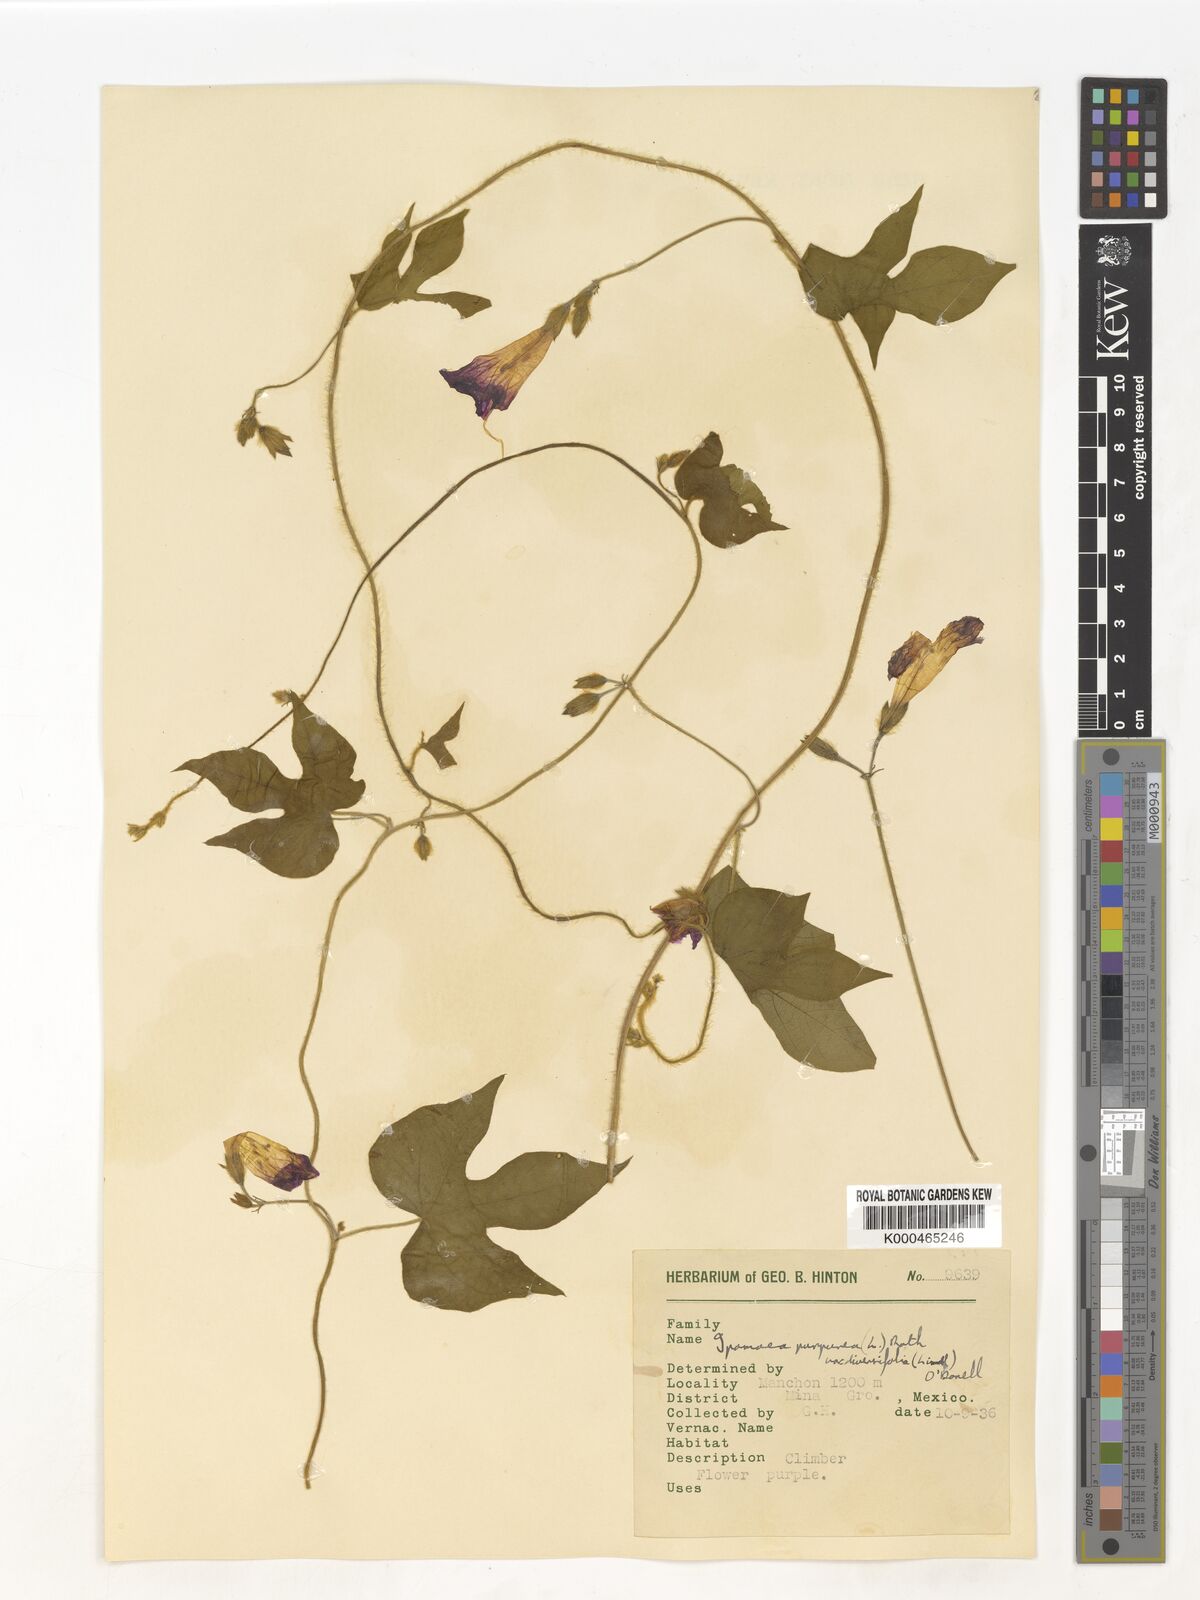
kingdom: Plantae
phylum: Tracheophyta
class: Magnoliopsida
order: Solanales
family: Convolvulaceae
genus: Ipomoea
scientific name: Ipomoea purpurea
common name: Common morning-glory
